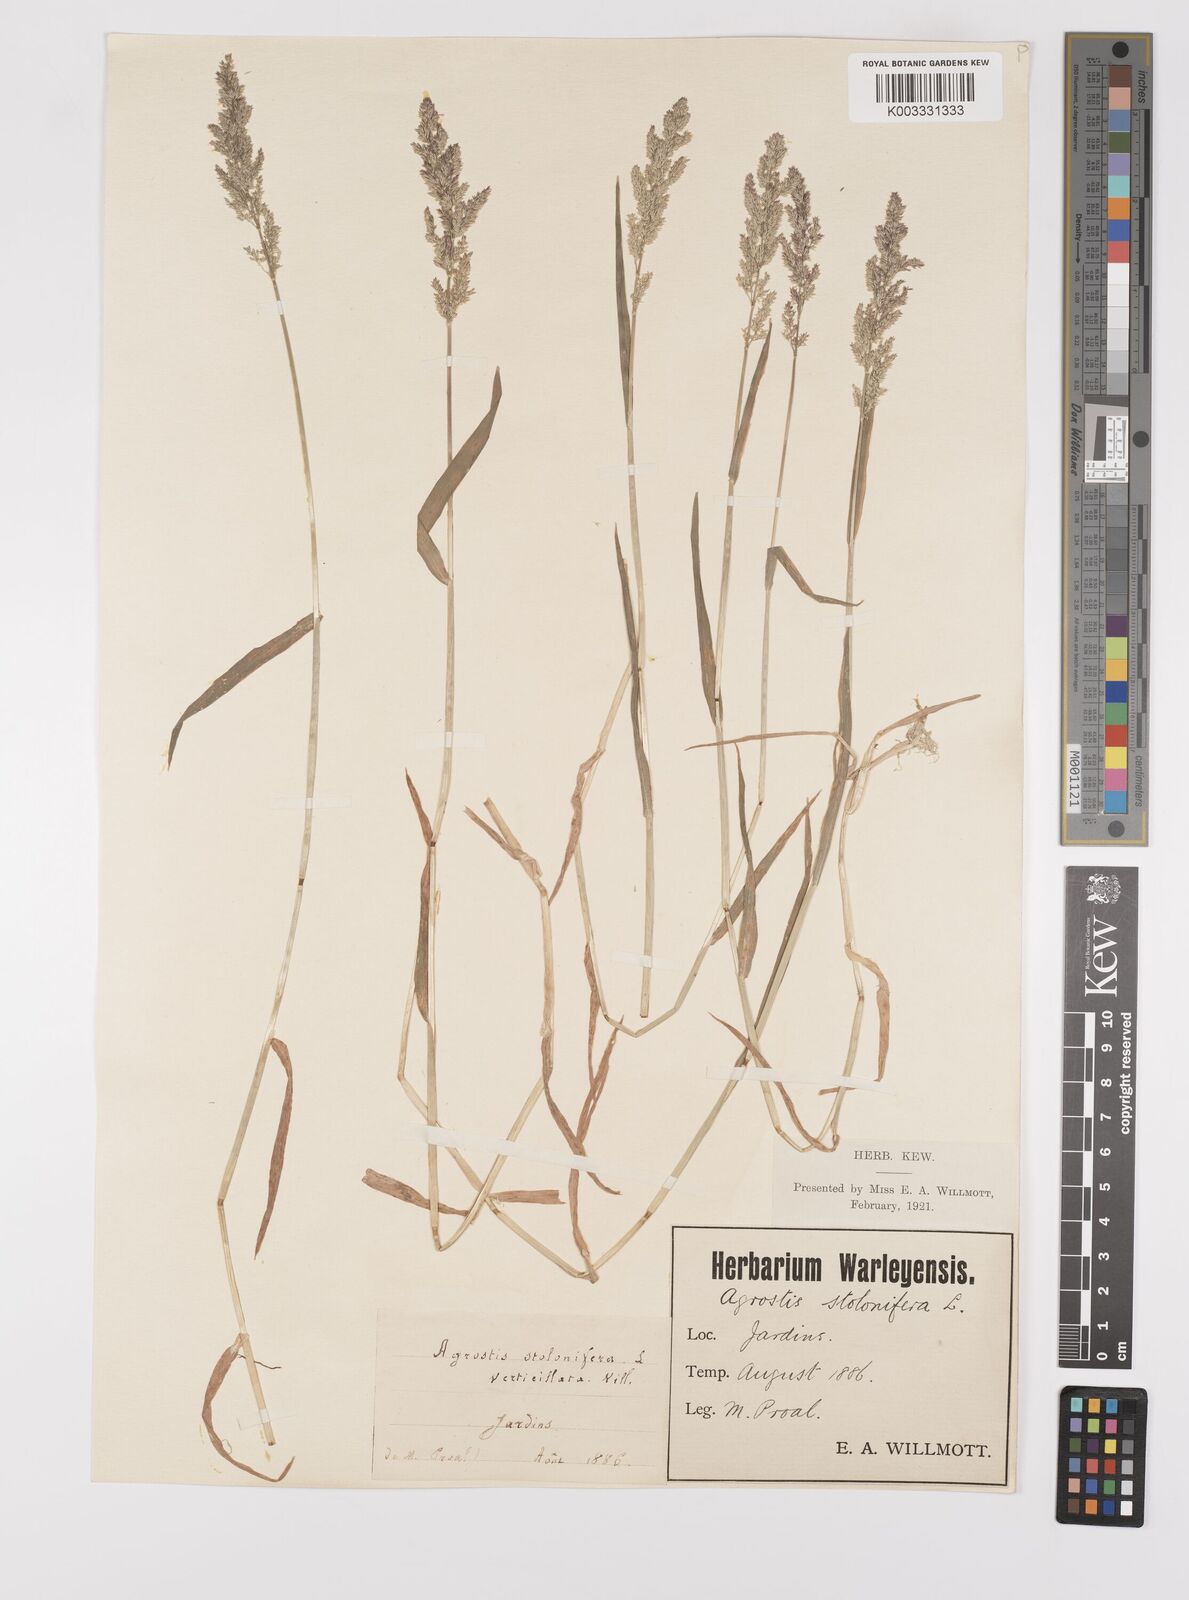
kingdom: Plantae
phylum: Tracheophyta
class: Liliopsida
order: Poales
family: Poaceae
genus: Polypogon
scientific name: Polypogon viridis
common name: Water bent
